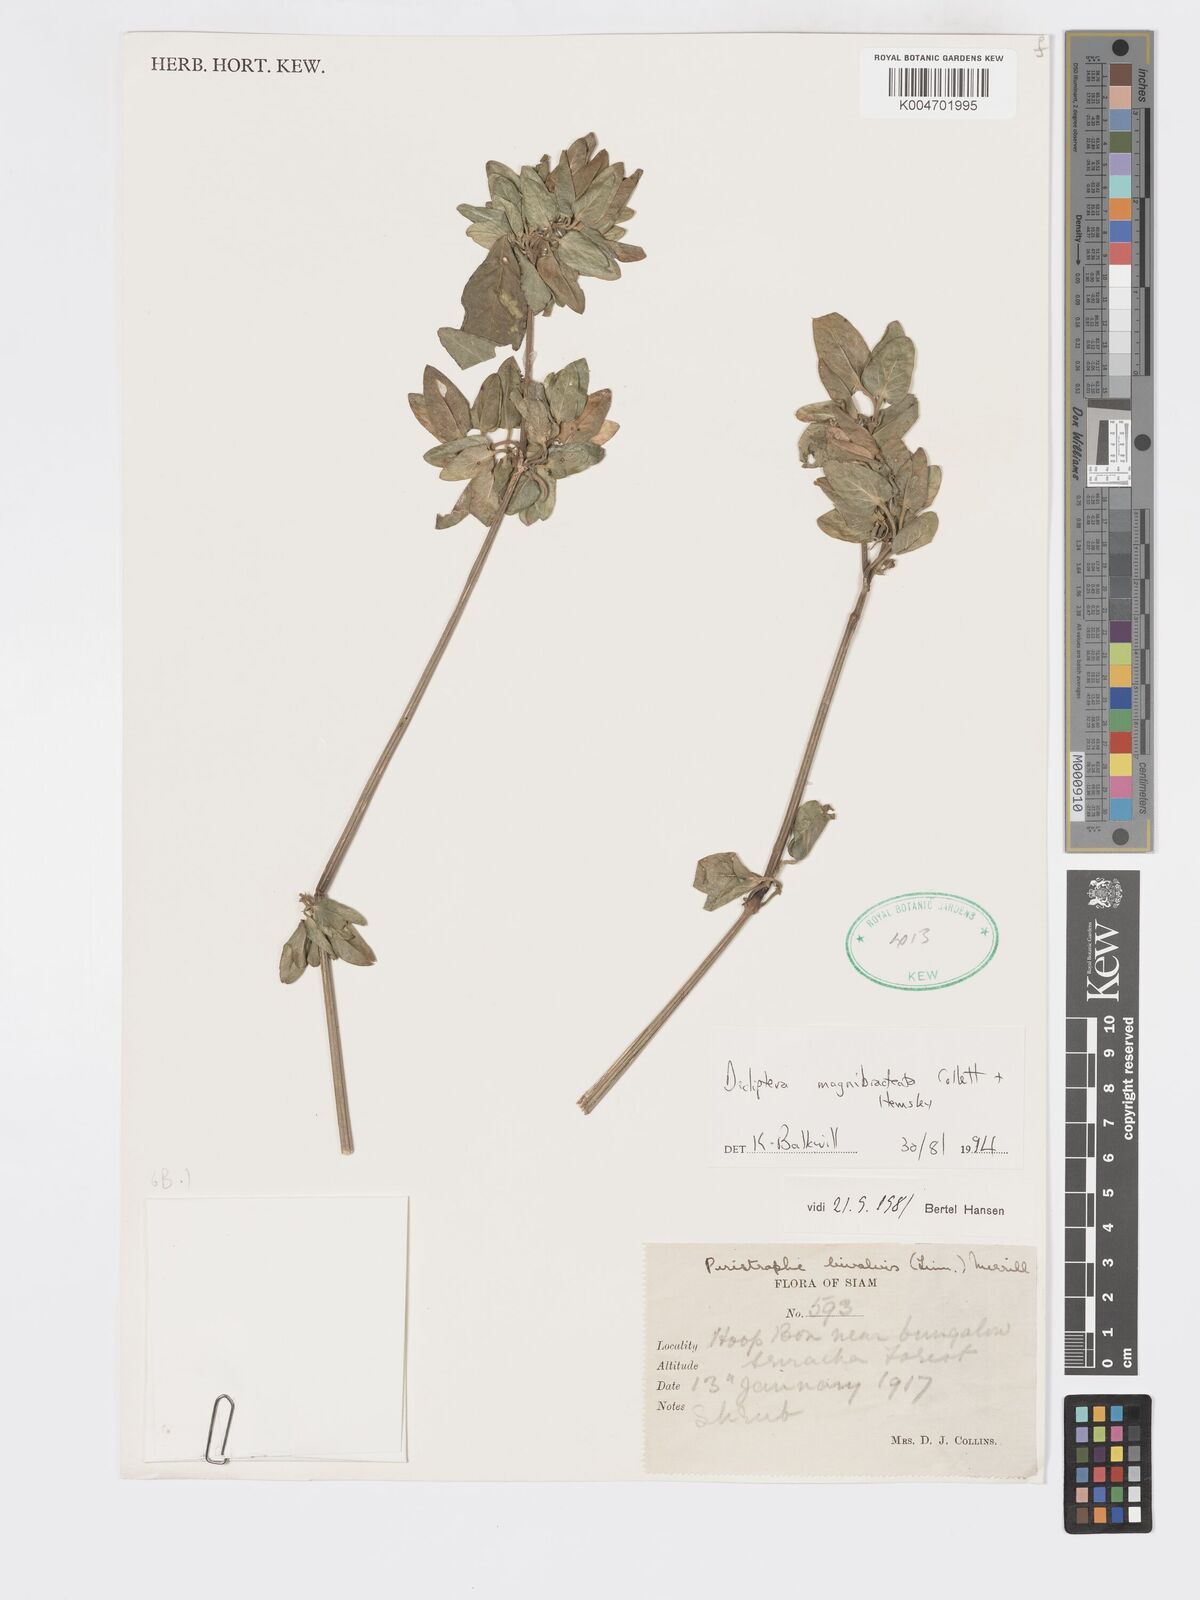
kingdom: Plantae
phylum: Tracheophyta
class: Magnoliopsida
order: Lamiales
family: Acanthaceae
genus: Dicliptera
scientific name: Dicliptera magnibracteata
